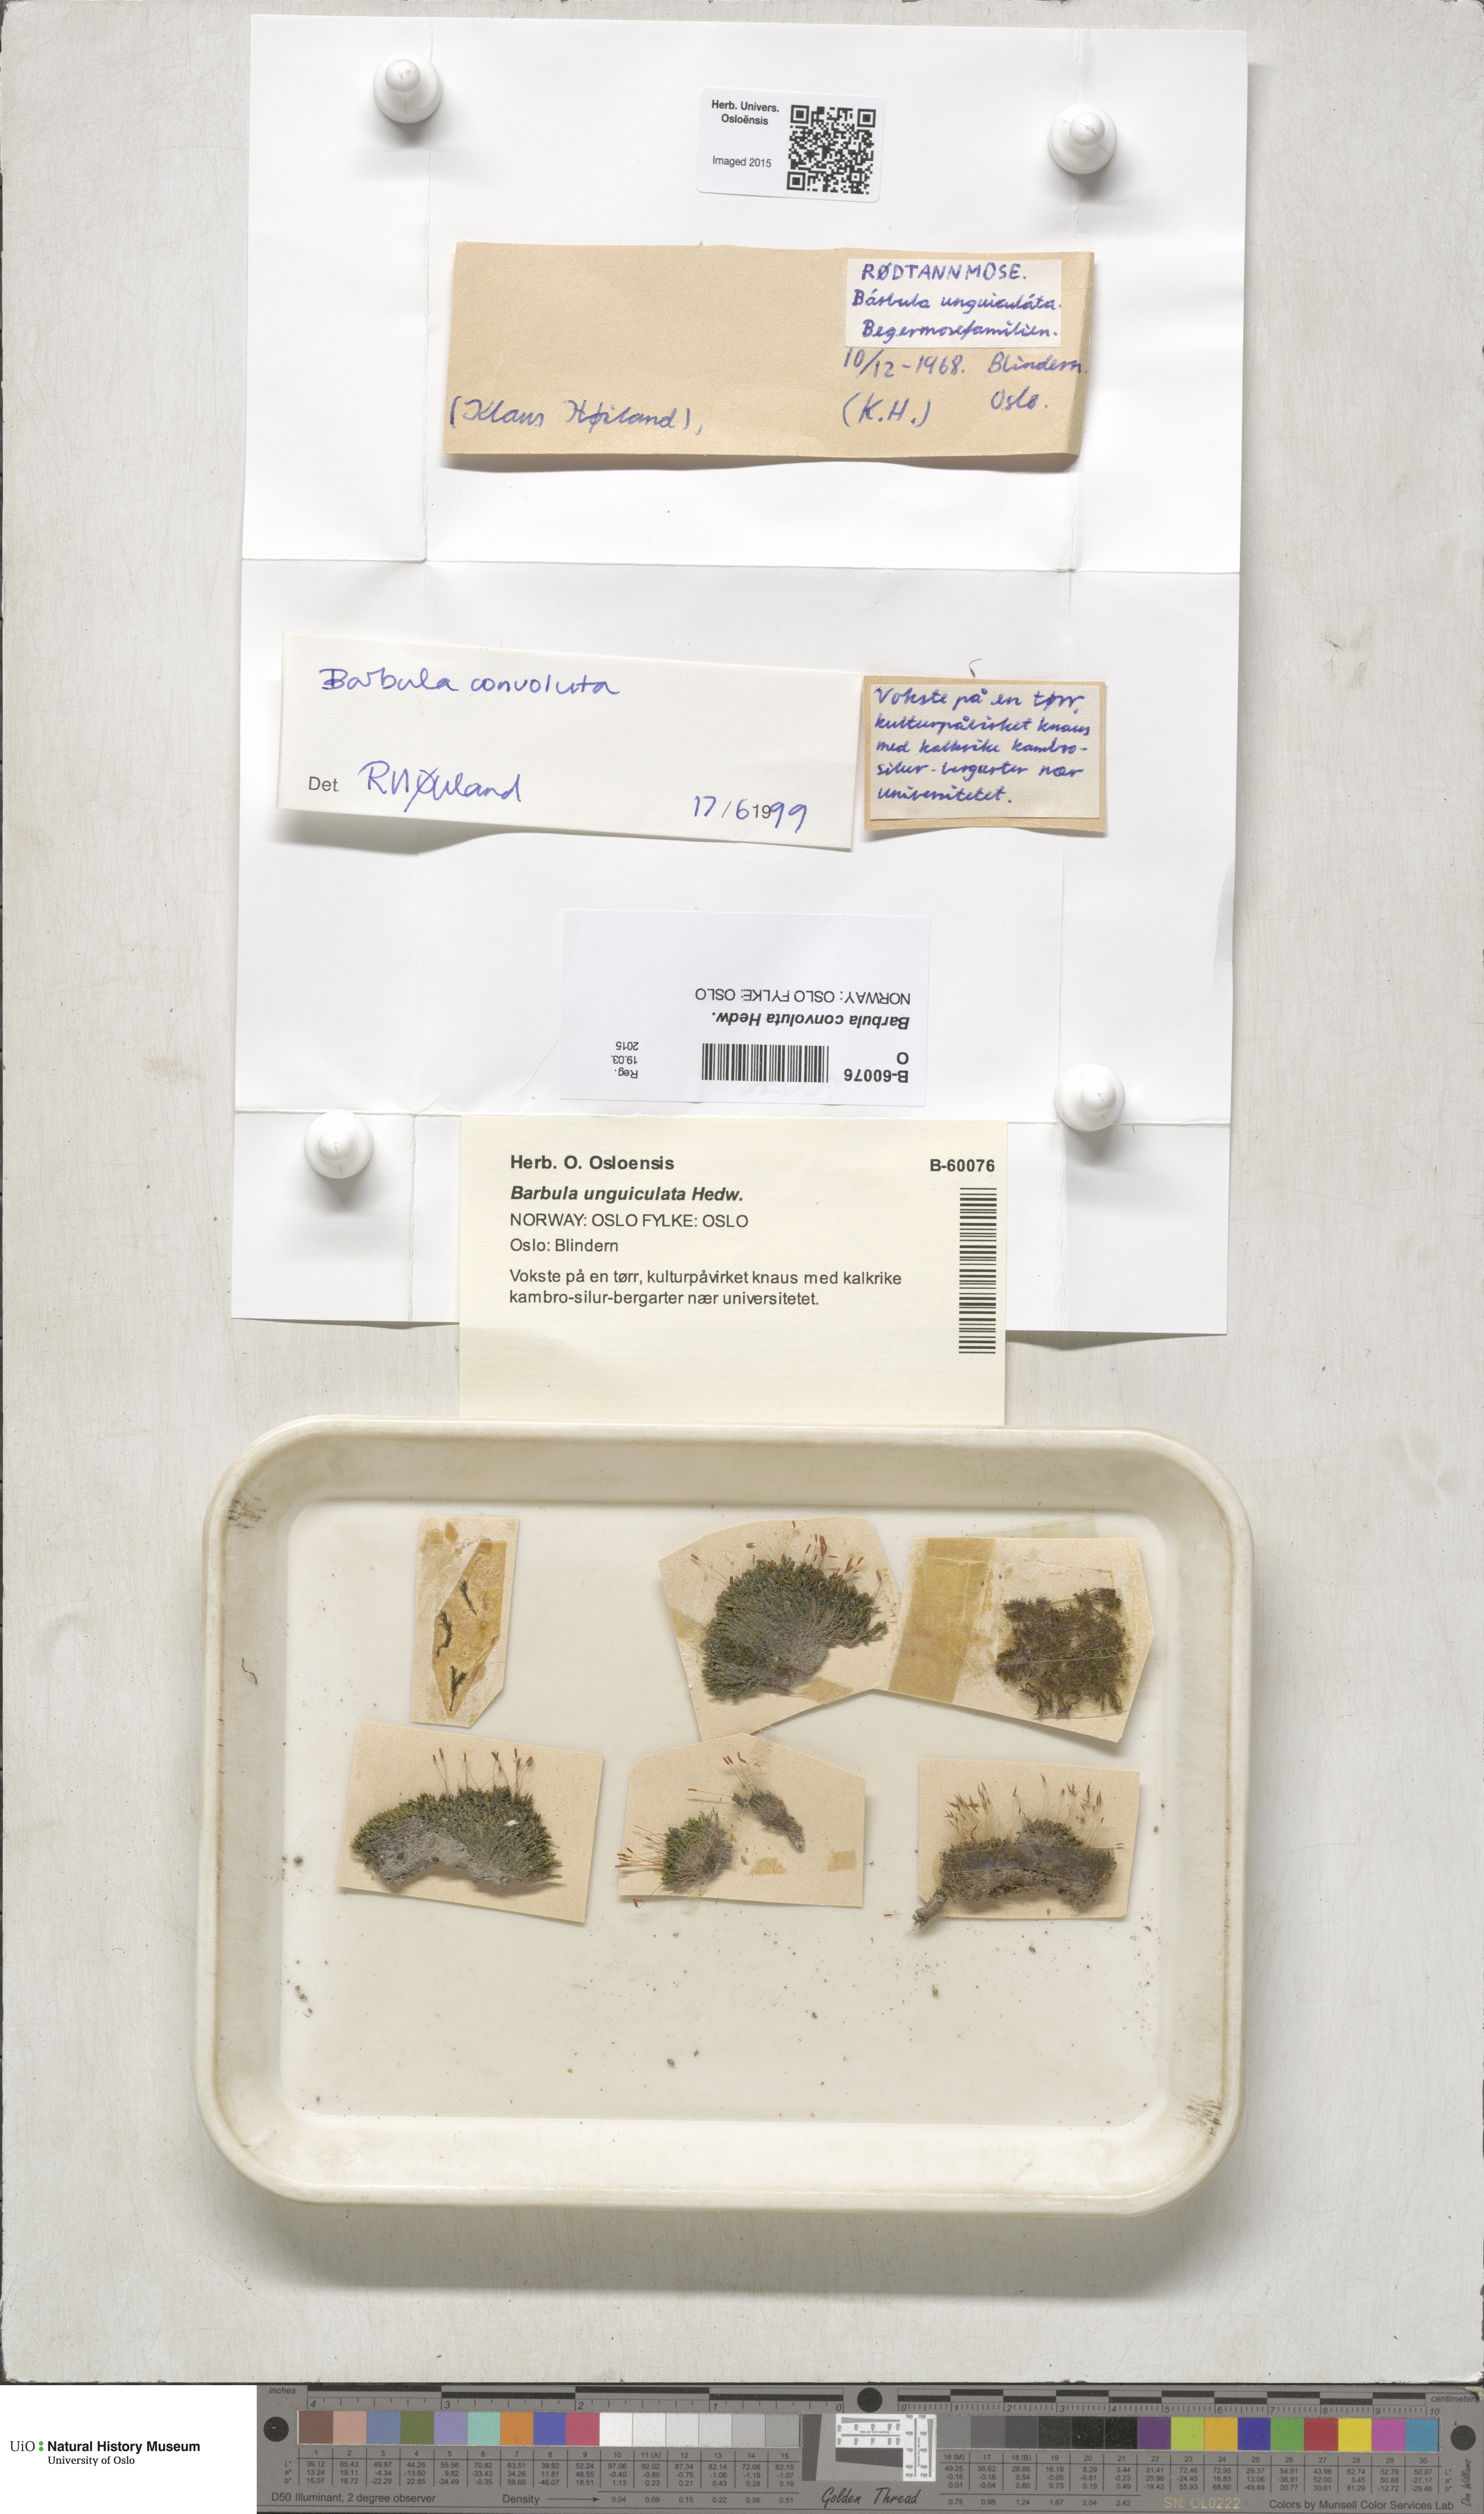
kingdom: Plantae
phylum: Bryophyta
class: Bryopsida
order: Pottiales
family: Pottiaceae
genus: Streblotrichum
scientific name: Streblotrichum convolutum
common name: Lesser bird's-claw beard-moss
